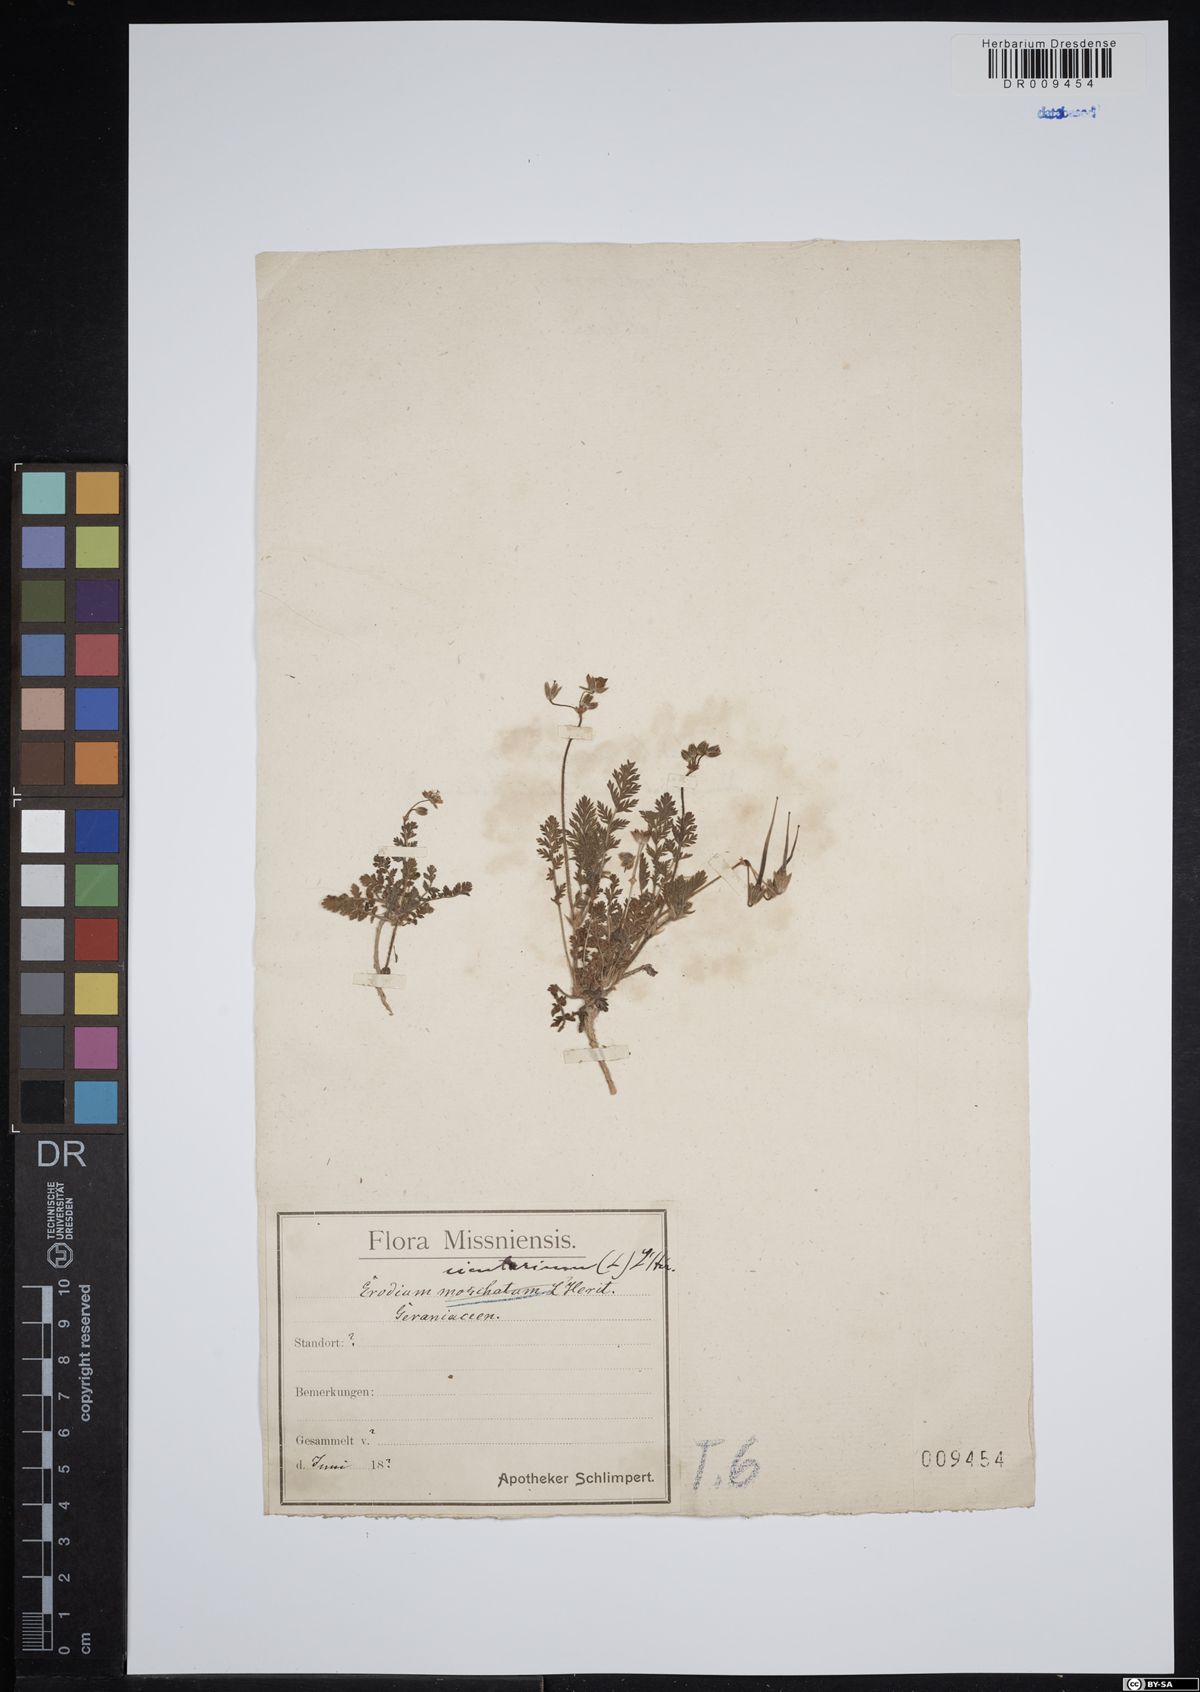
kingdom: Plantae
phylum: Tracheophyta
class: Magnoliopsida
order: Geraniales
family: Geraniaceae
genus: Erodium
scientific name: Erodium cicutarium
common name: Common stork's-bill
